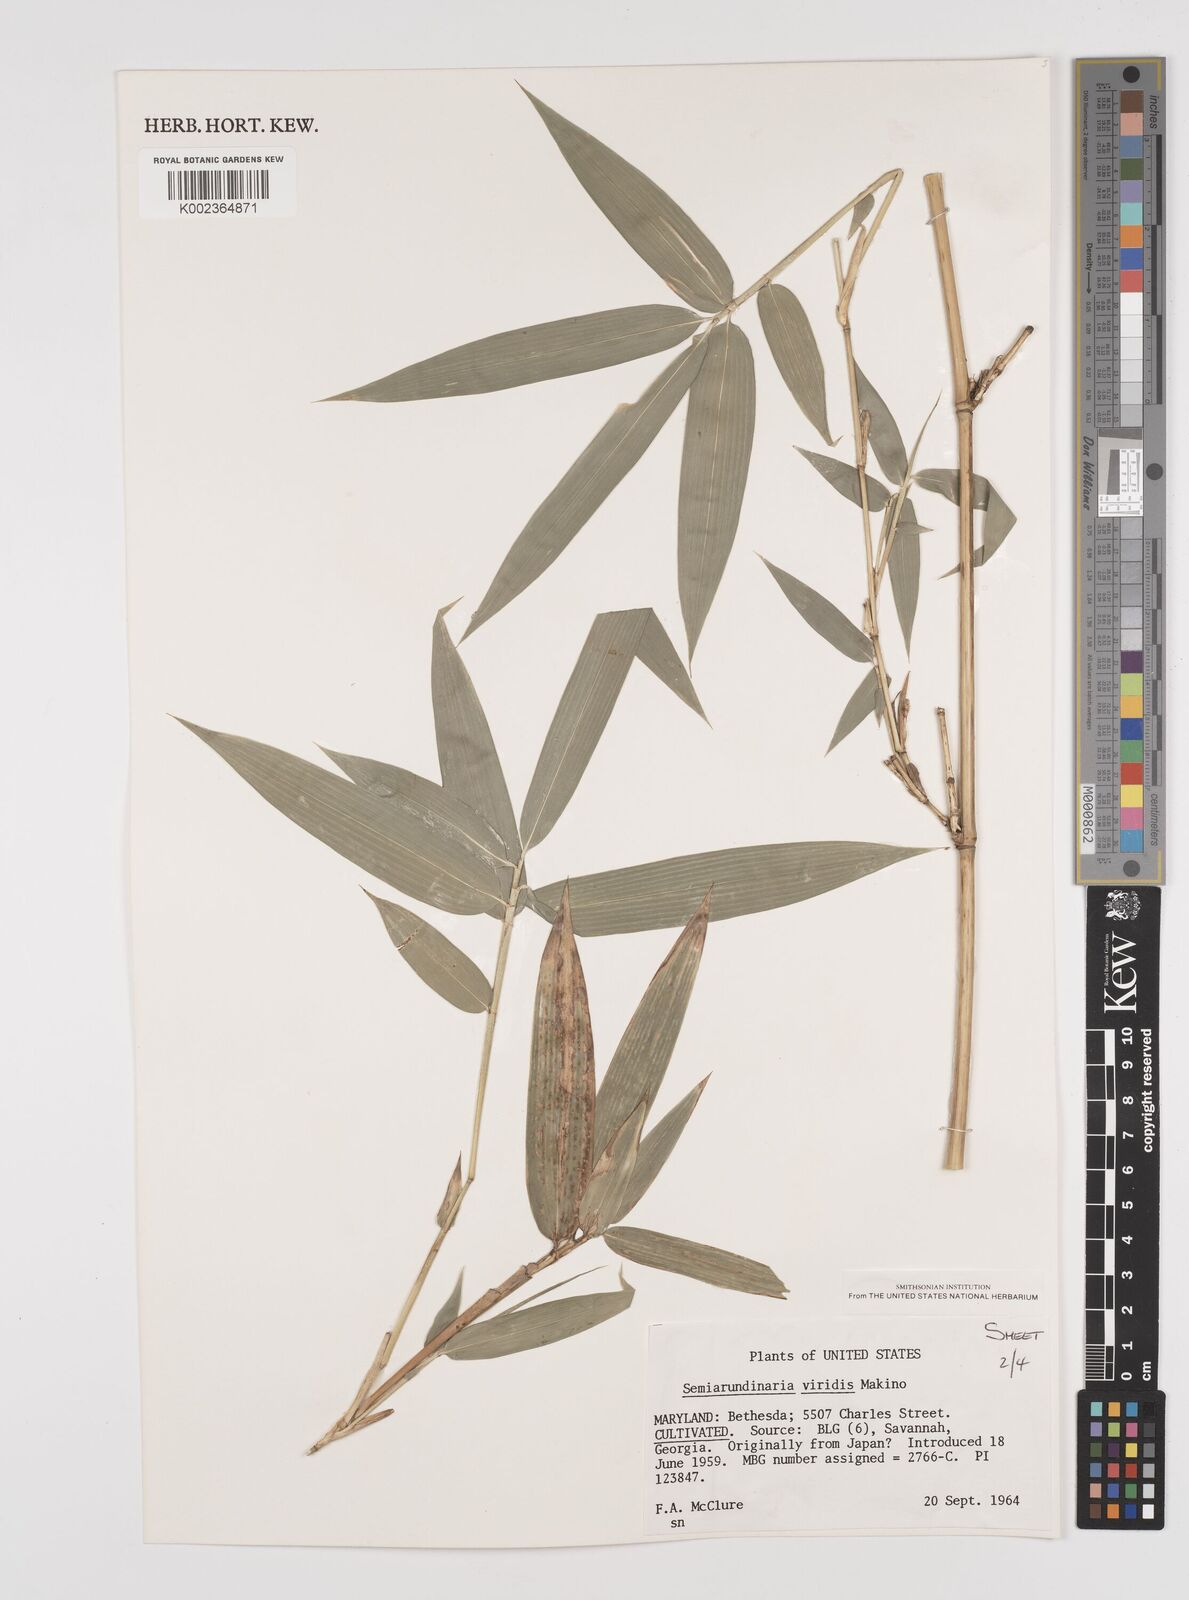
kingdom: Plantae
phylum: Tracheophyta
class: Liliopsida
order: Poales
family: Poaceae
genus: Semiarundinaria
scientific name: Semiarundinaria fastuosa
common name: Narihira bamboo
